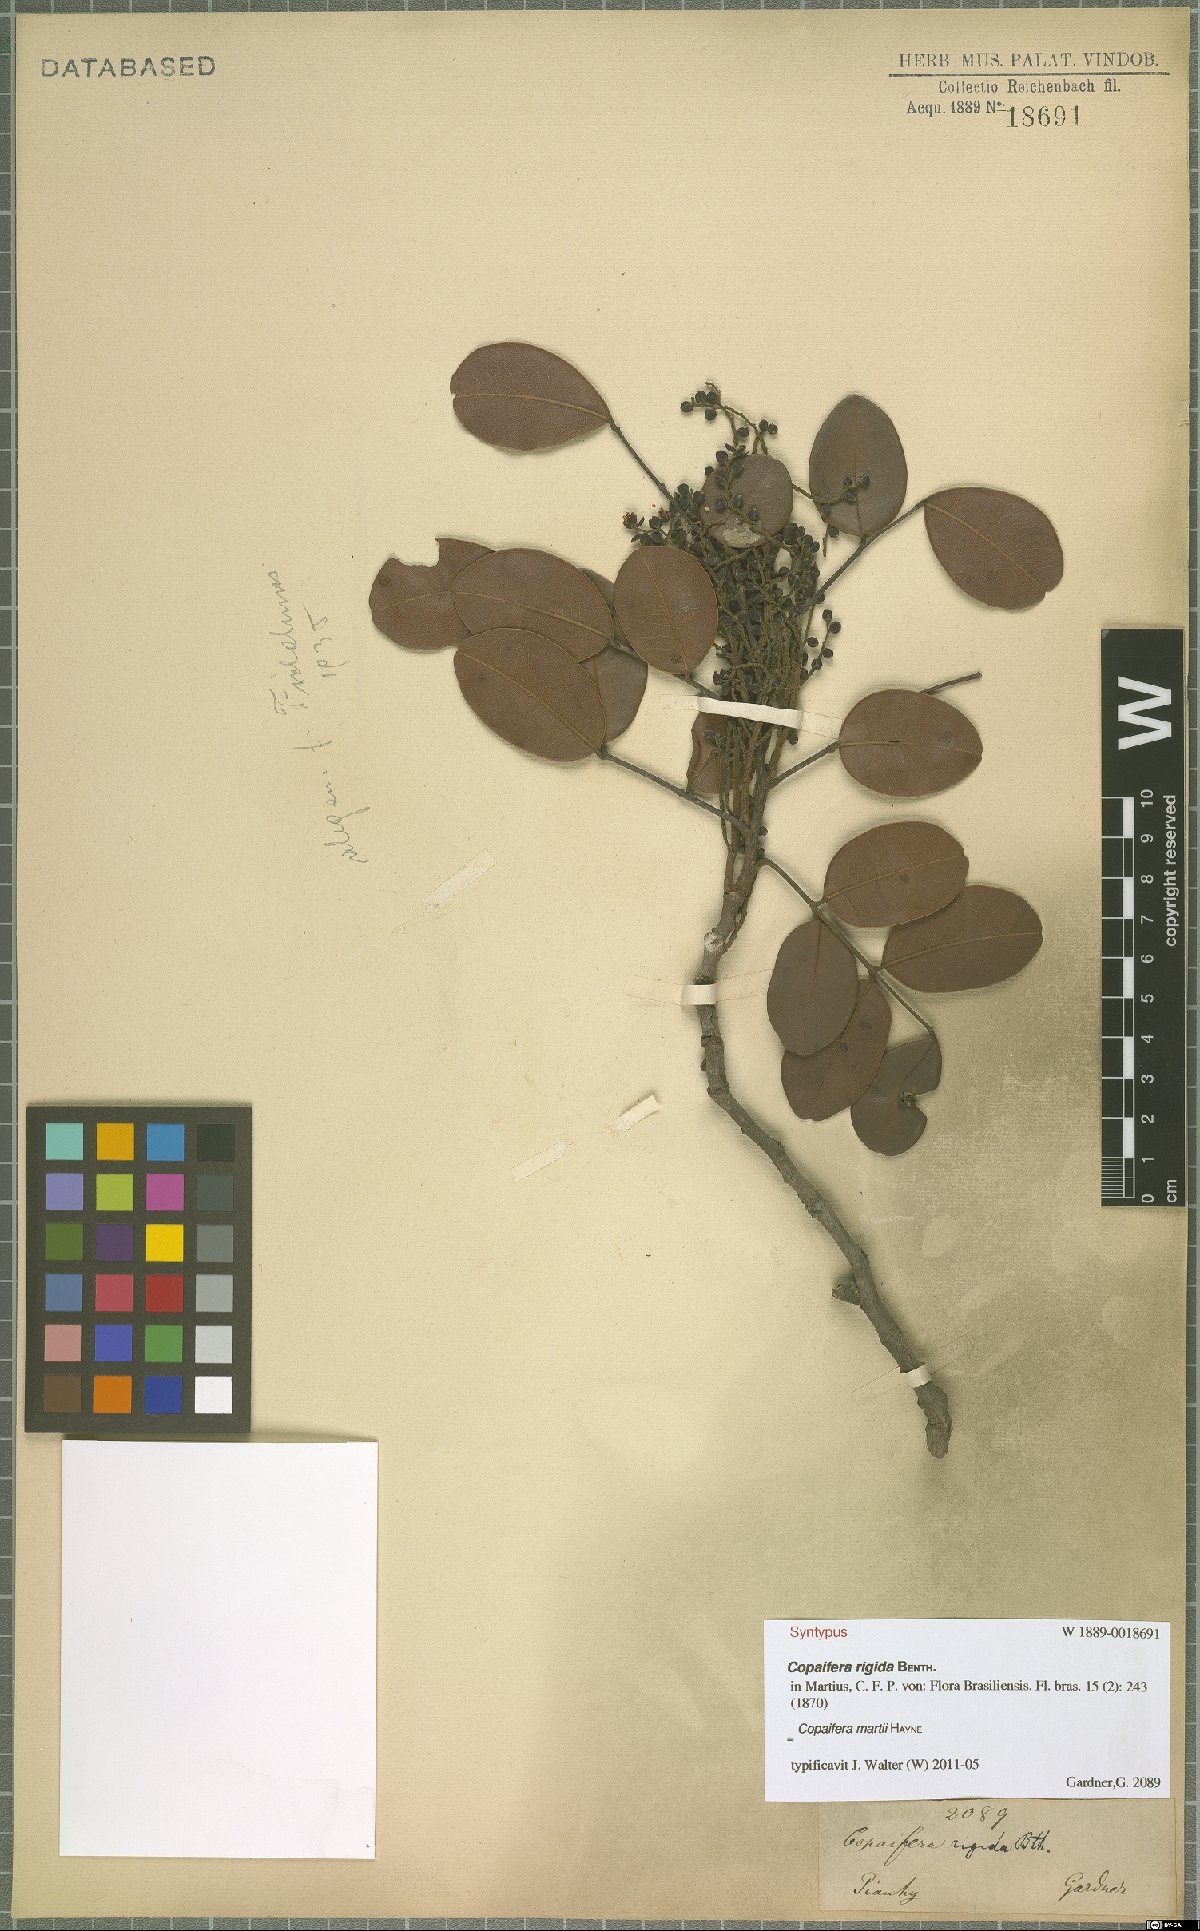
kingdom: Plantae
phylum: Tracheophyta
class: Magnoliopsida
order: Fabales
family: Fabaceae
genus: Copaifera
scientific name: Copaifera martii
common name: Copaiba
